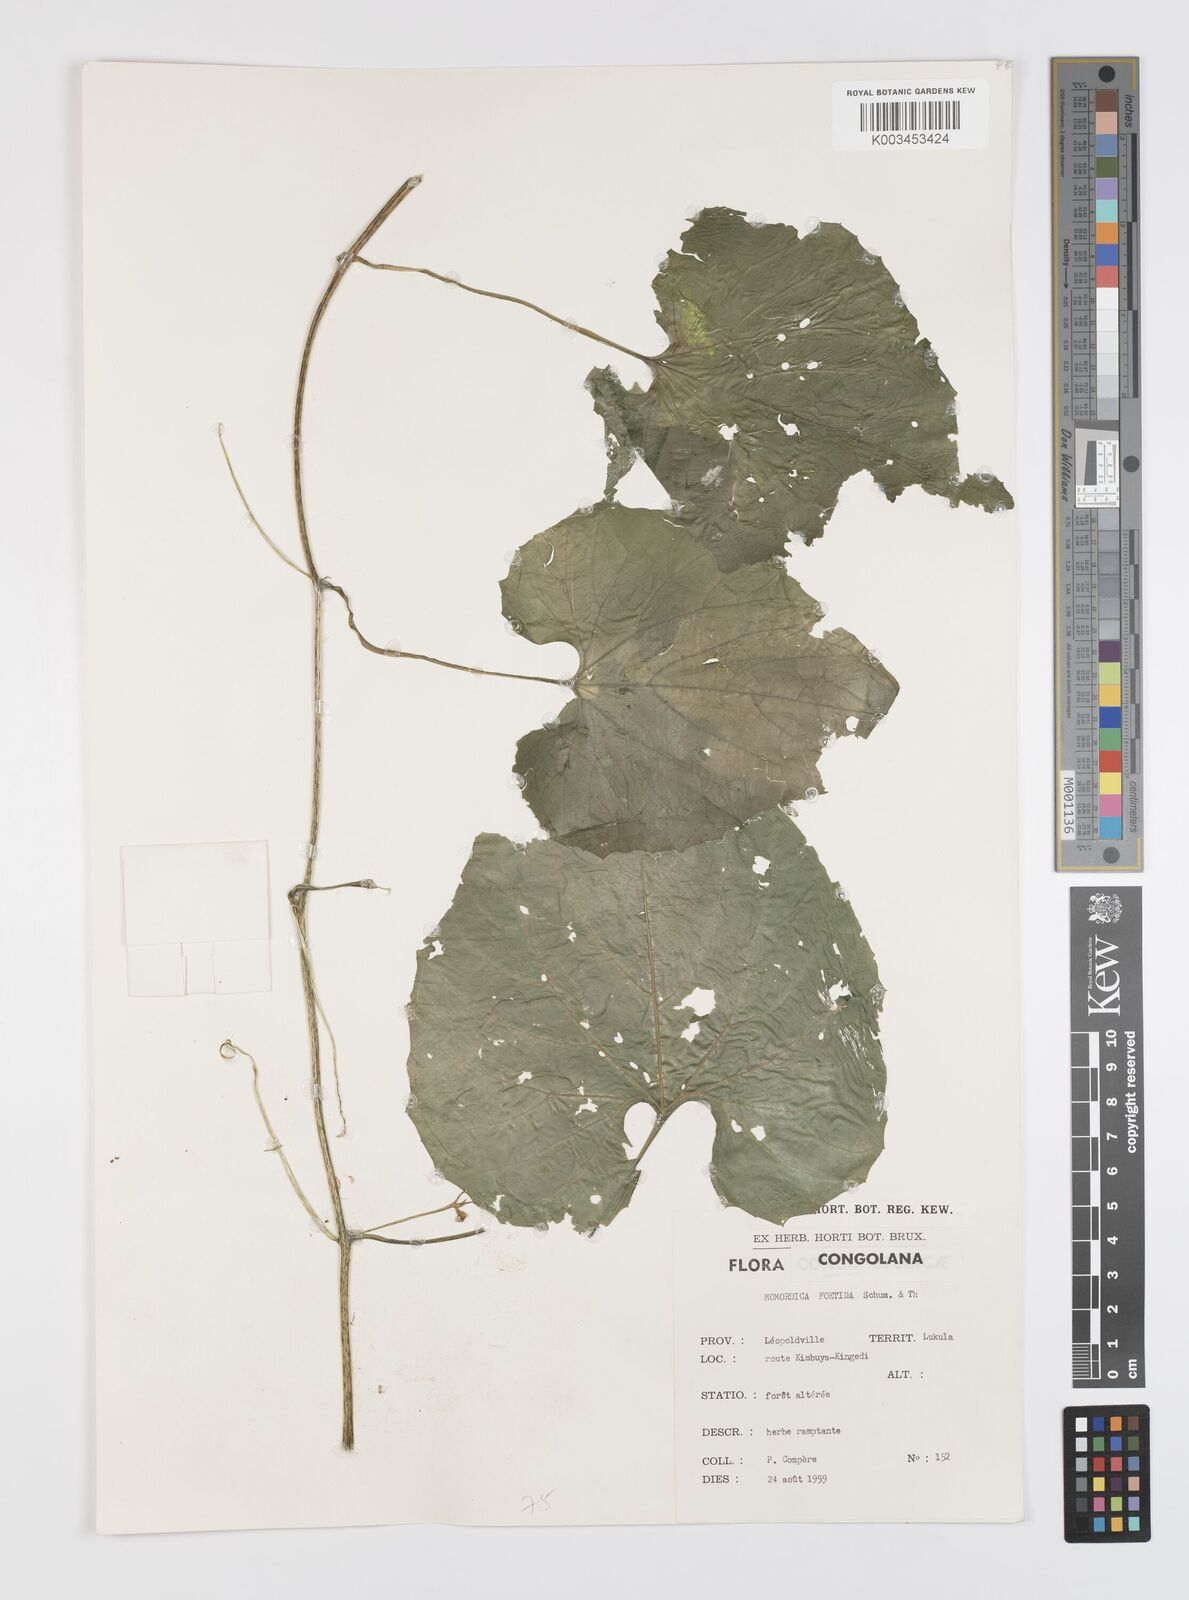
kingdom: Plantae
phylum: Tracheophyta
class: Magnoliopsida
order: Cucurbitales
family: Cucurbitaceae
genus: Momordica
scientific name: Momordica foetida
